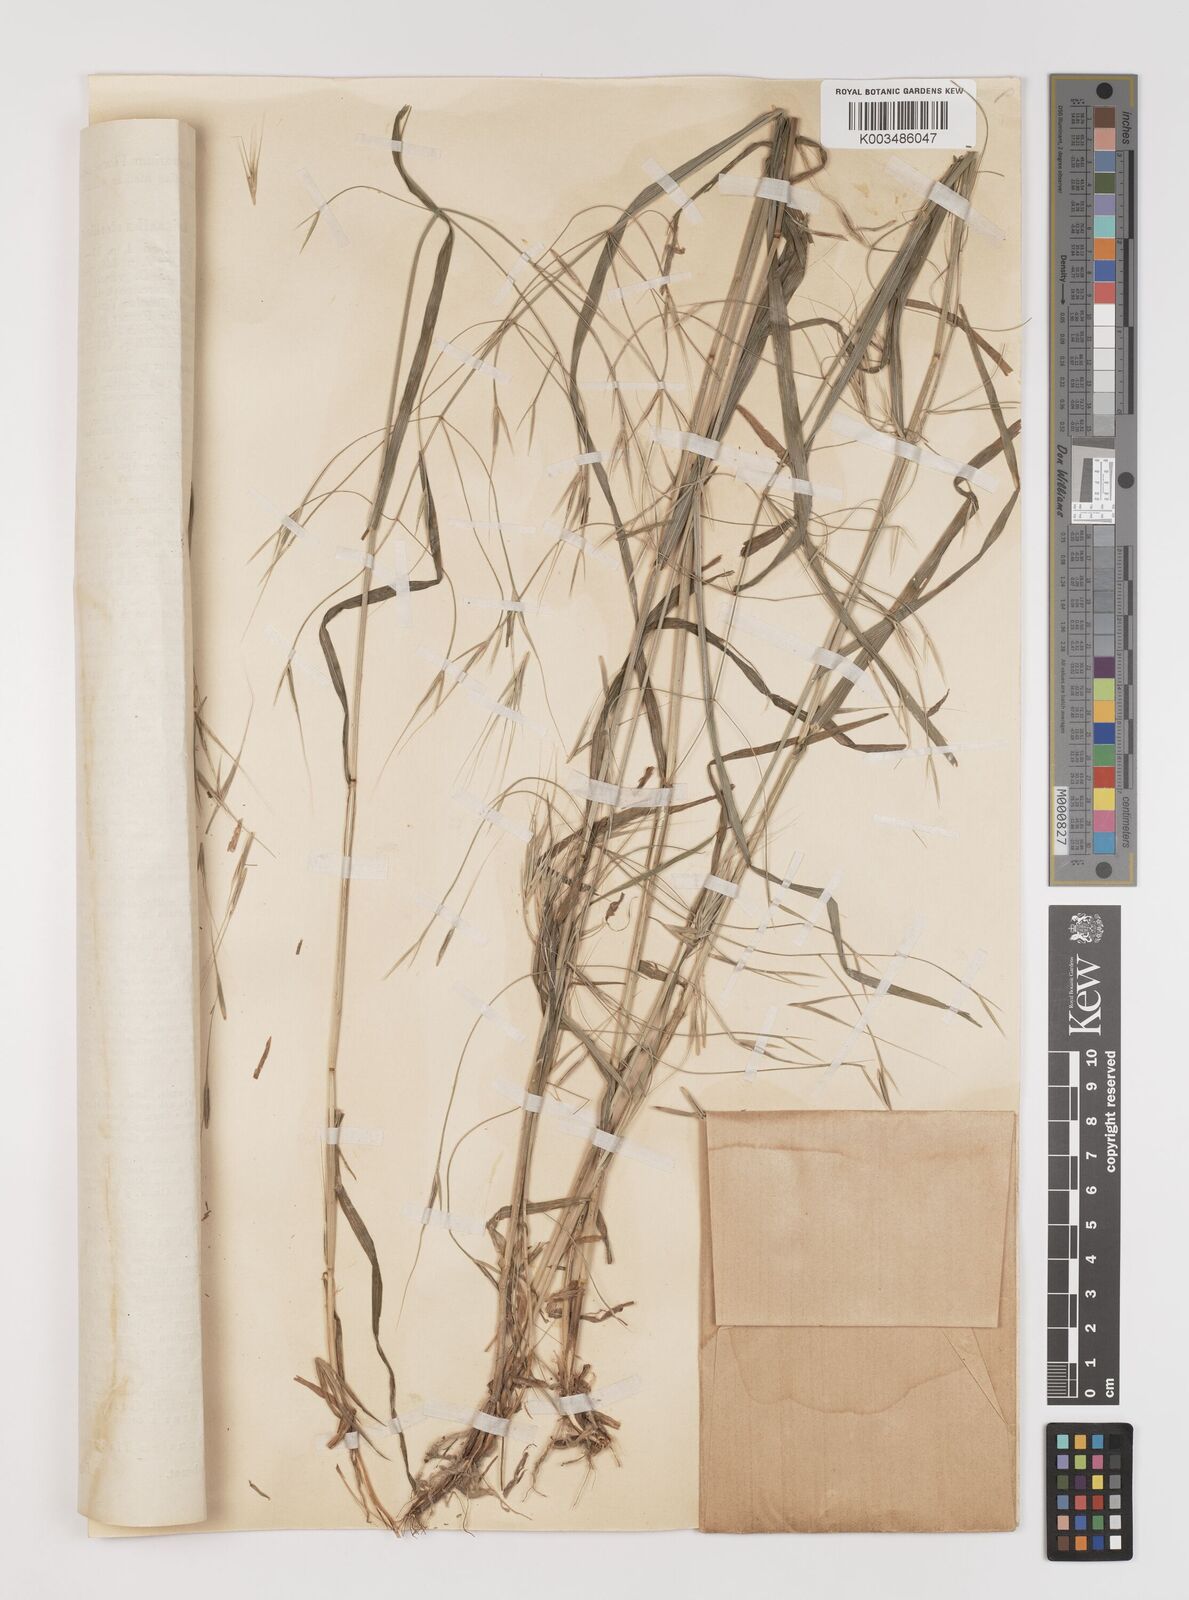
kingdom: Plantae
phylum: Tracheophyta
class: Liliopsida
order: Poales
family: Poaceae
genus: Bromus
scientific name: Bromus sterilis
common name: Poverty brome
